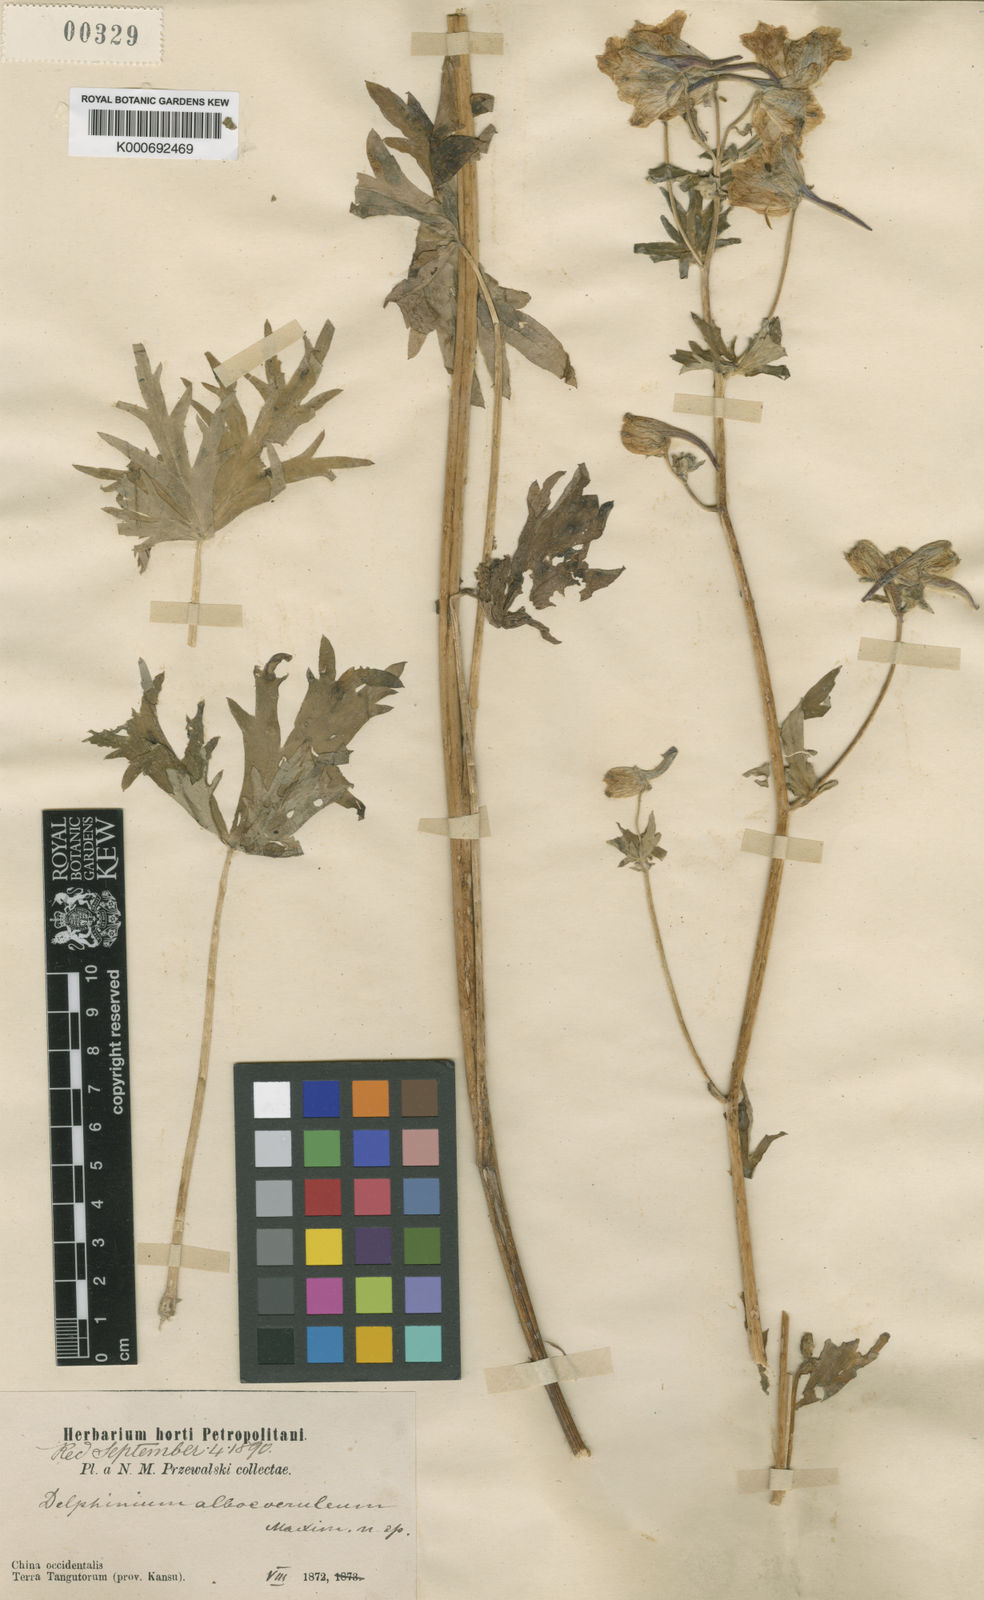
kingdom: Plantae
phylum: Tracheophyta
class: Magnoliopsida
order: Ranunculales
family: Ranunculaceae
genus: Delphinium
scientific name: Delphinium albocoeruleum
